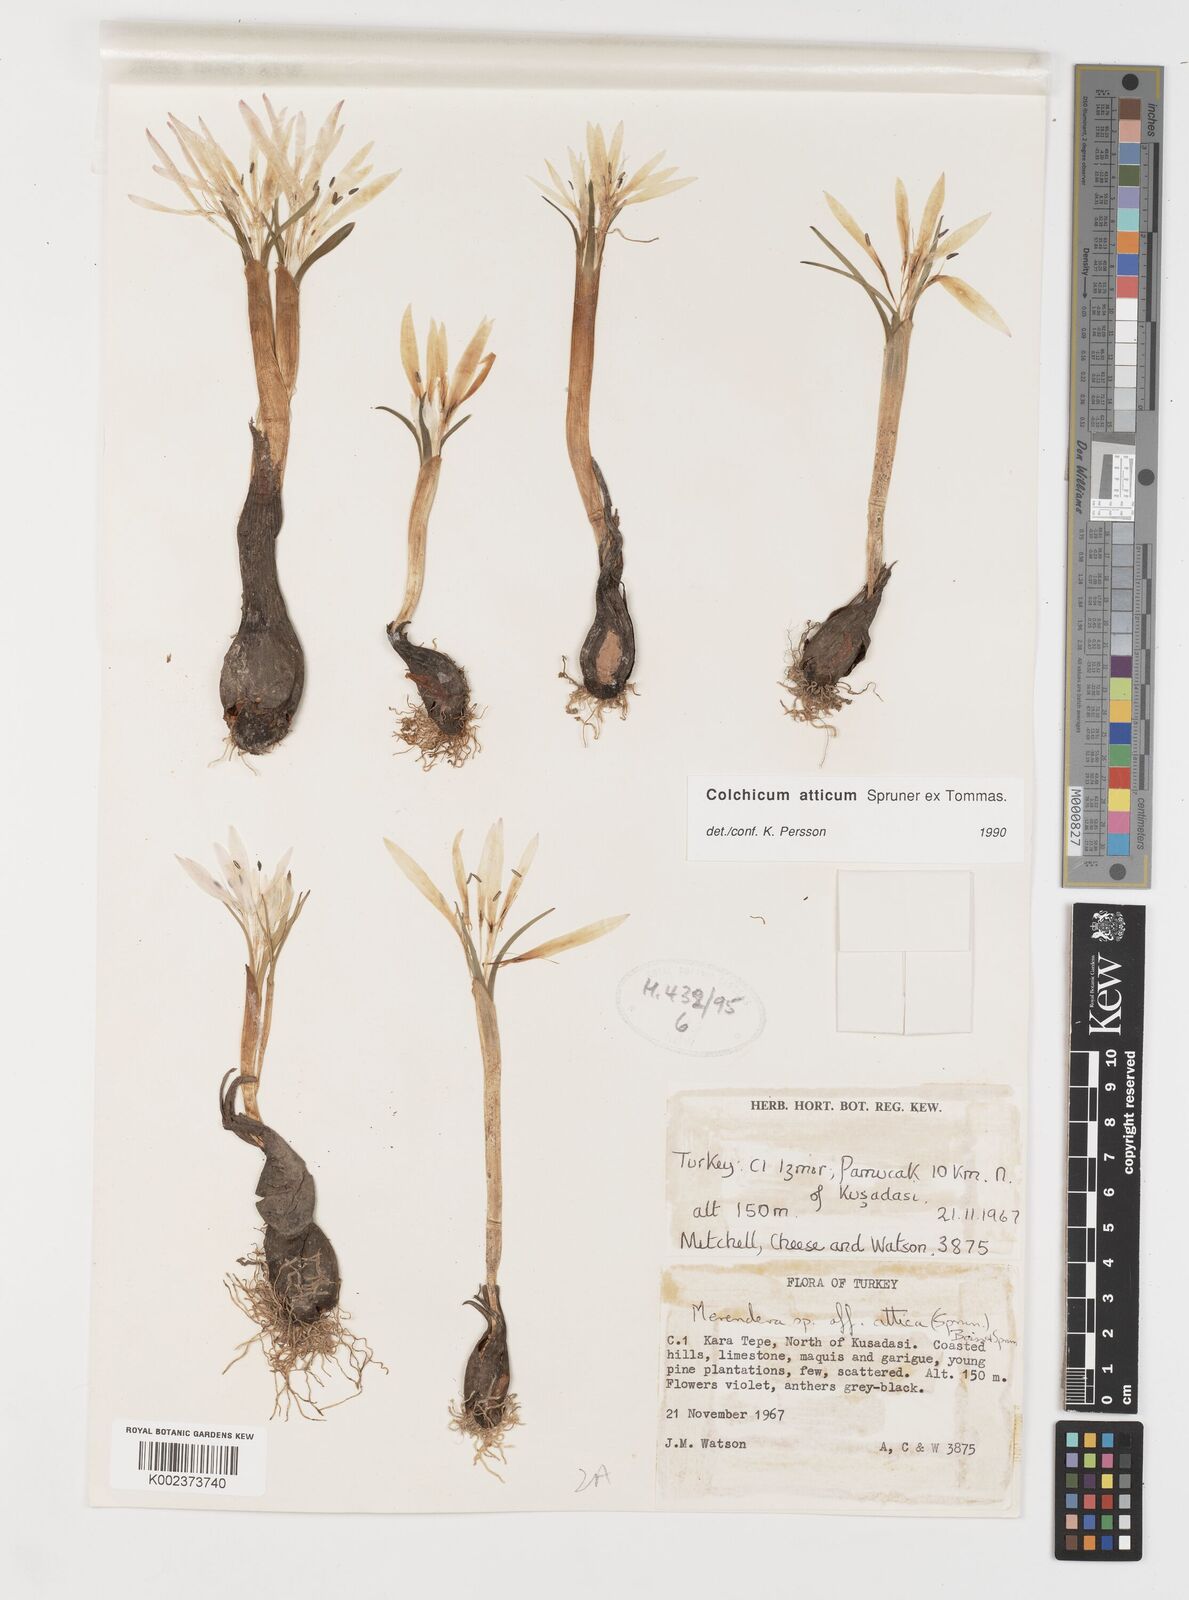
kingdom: Plantae
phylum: Tracheophyta
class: Liliopsida
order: Liliales
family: Colchicaceae
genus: Colchicum
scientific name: Colchicum atticum
